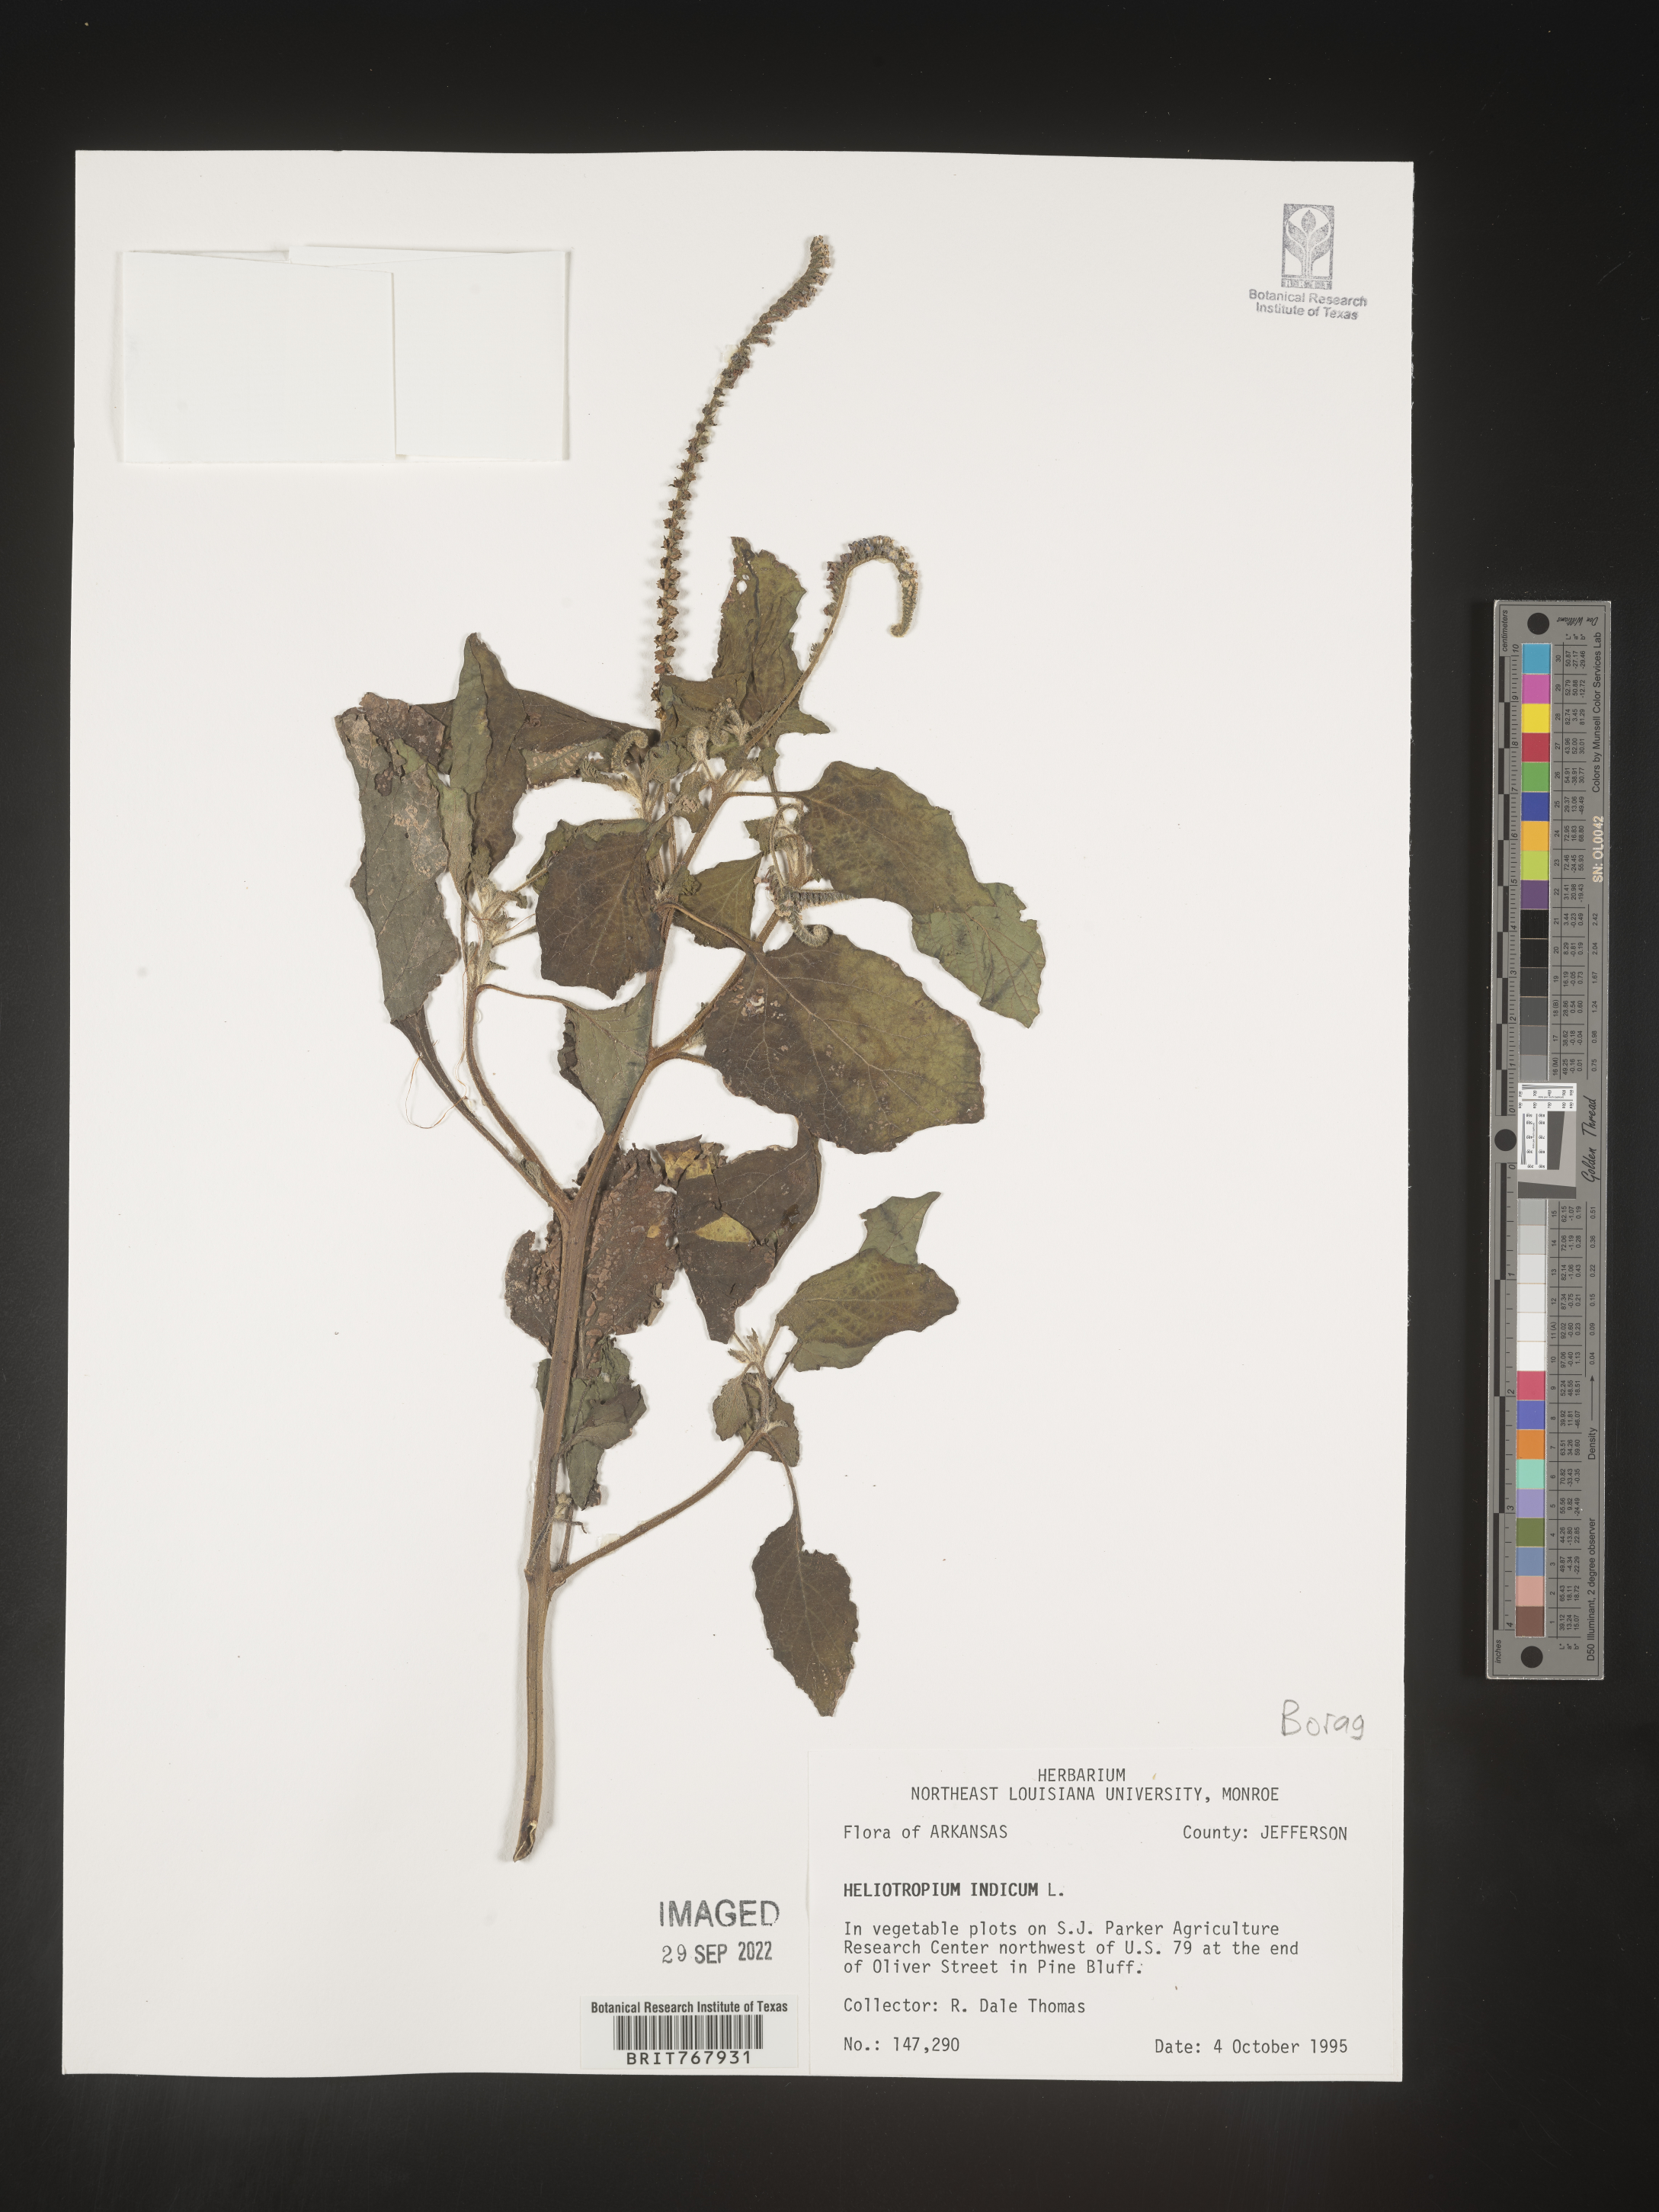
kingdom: Plantae
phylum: Tracheophyta
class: Magnoliopsida
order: Boraginales
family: Heliotropiaceae
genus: Heliotropium
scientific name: Heliotropium indicum
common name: Indian heliotrope
